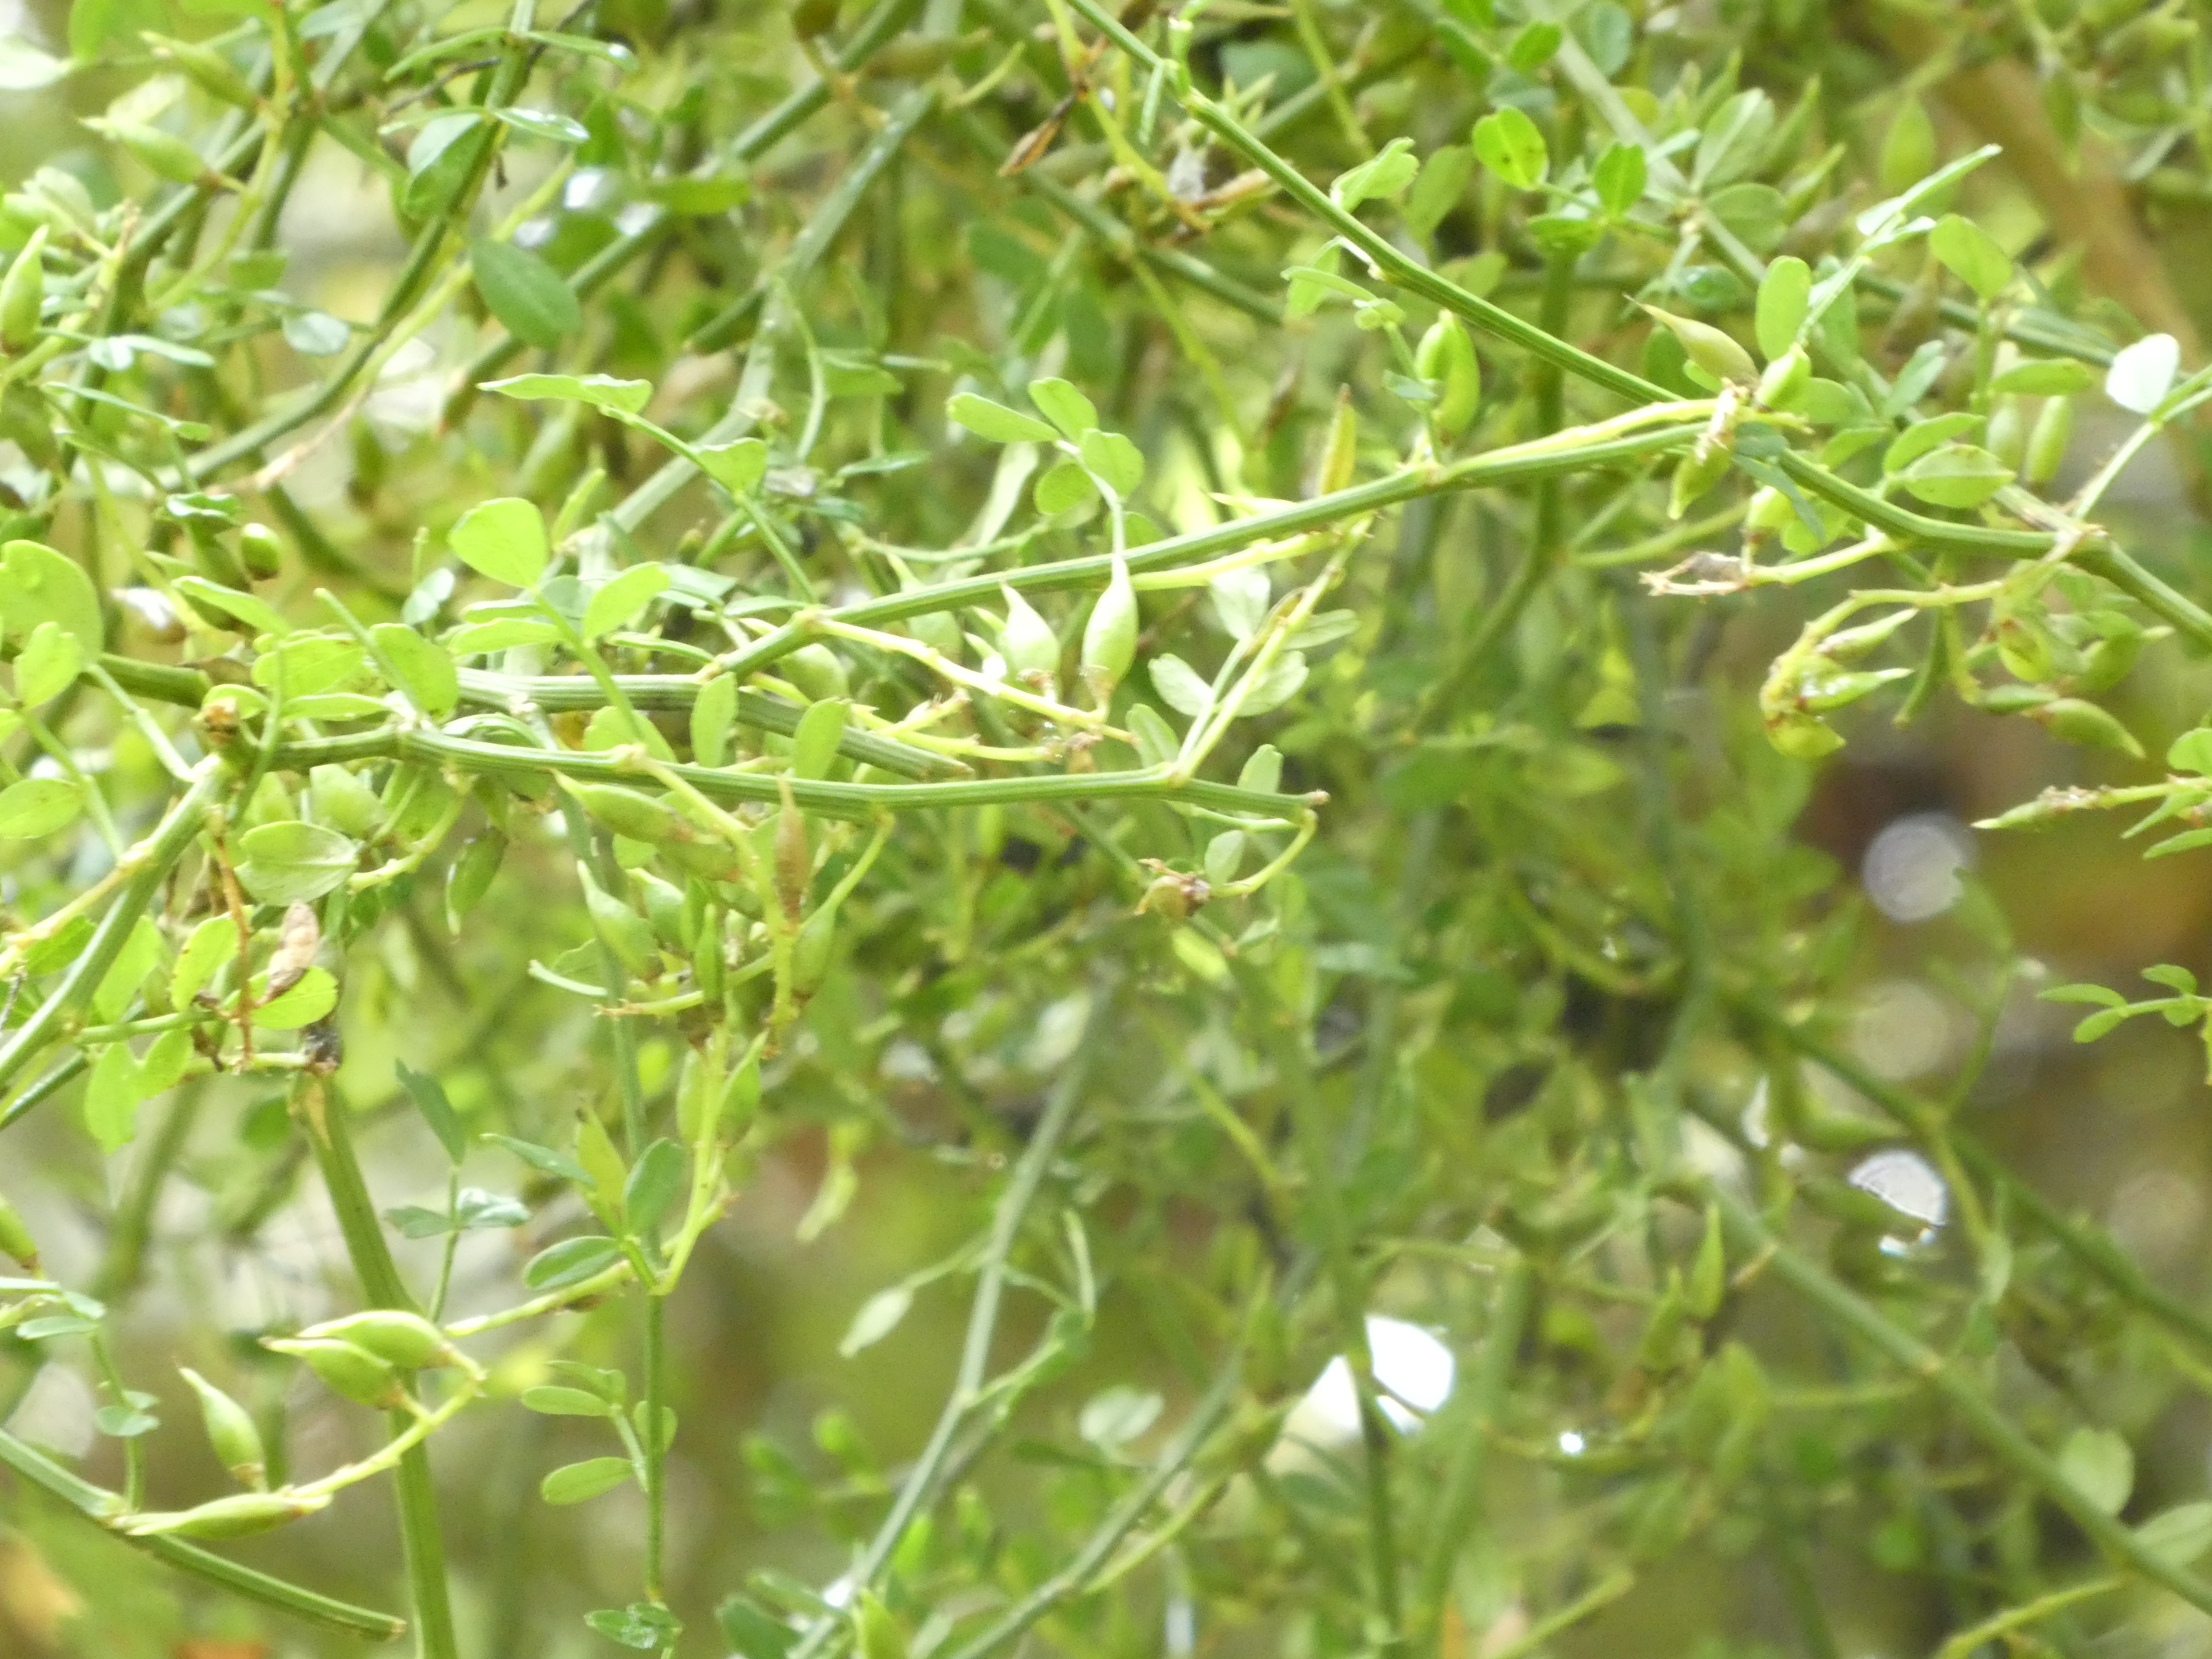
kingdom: Plantae
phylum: Tracheophyta
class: Magnoliopsida
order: Fabales
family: Fabaceae
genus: Carmichaelia
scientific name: Carmichaelia arborea
